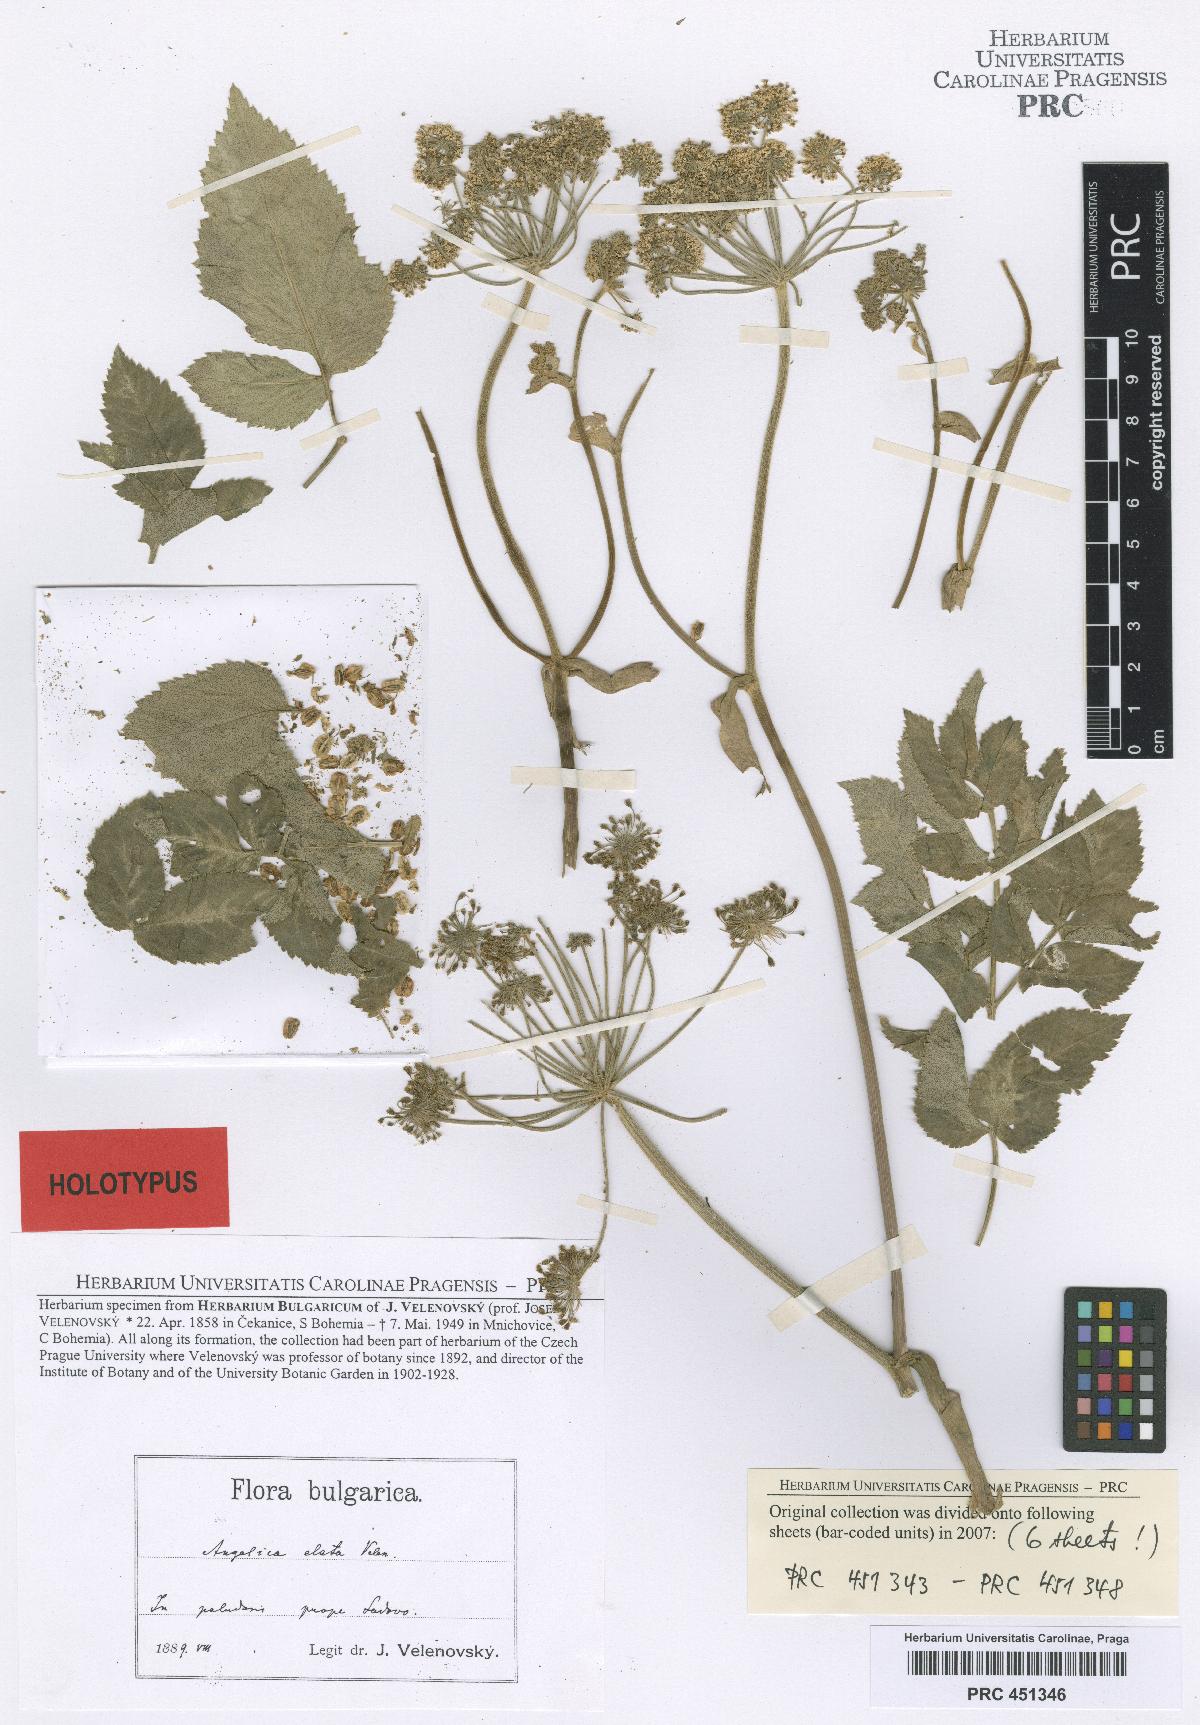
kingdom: Plantae
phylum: Tracheophyta
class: Magnoliopsida
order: Apiales
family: Apiaceae
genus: Angelica
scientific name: Angelica sylvestris
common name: Wild angelica
